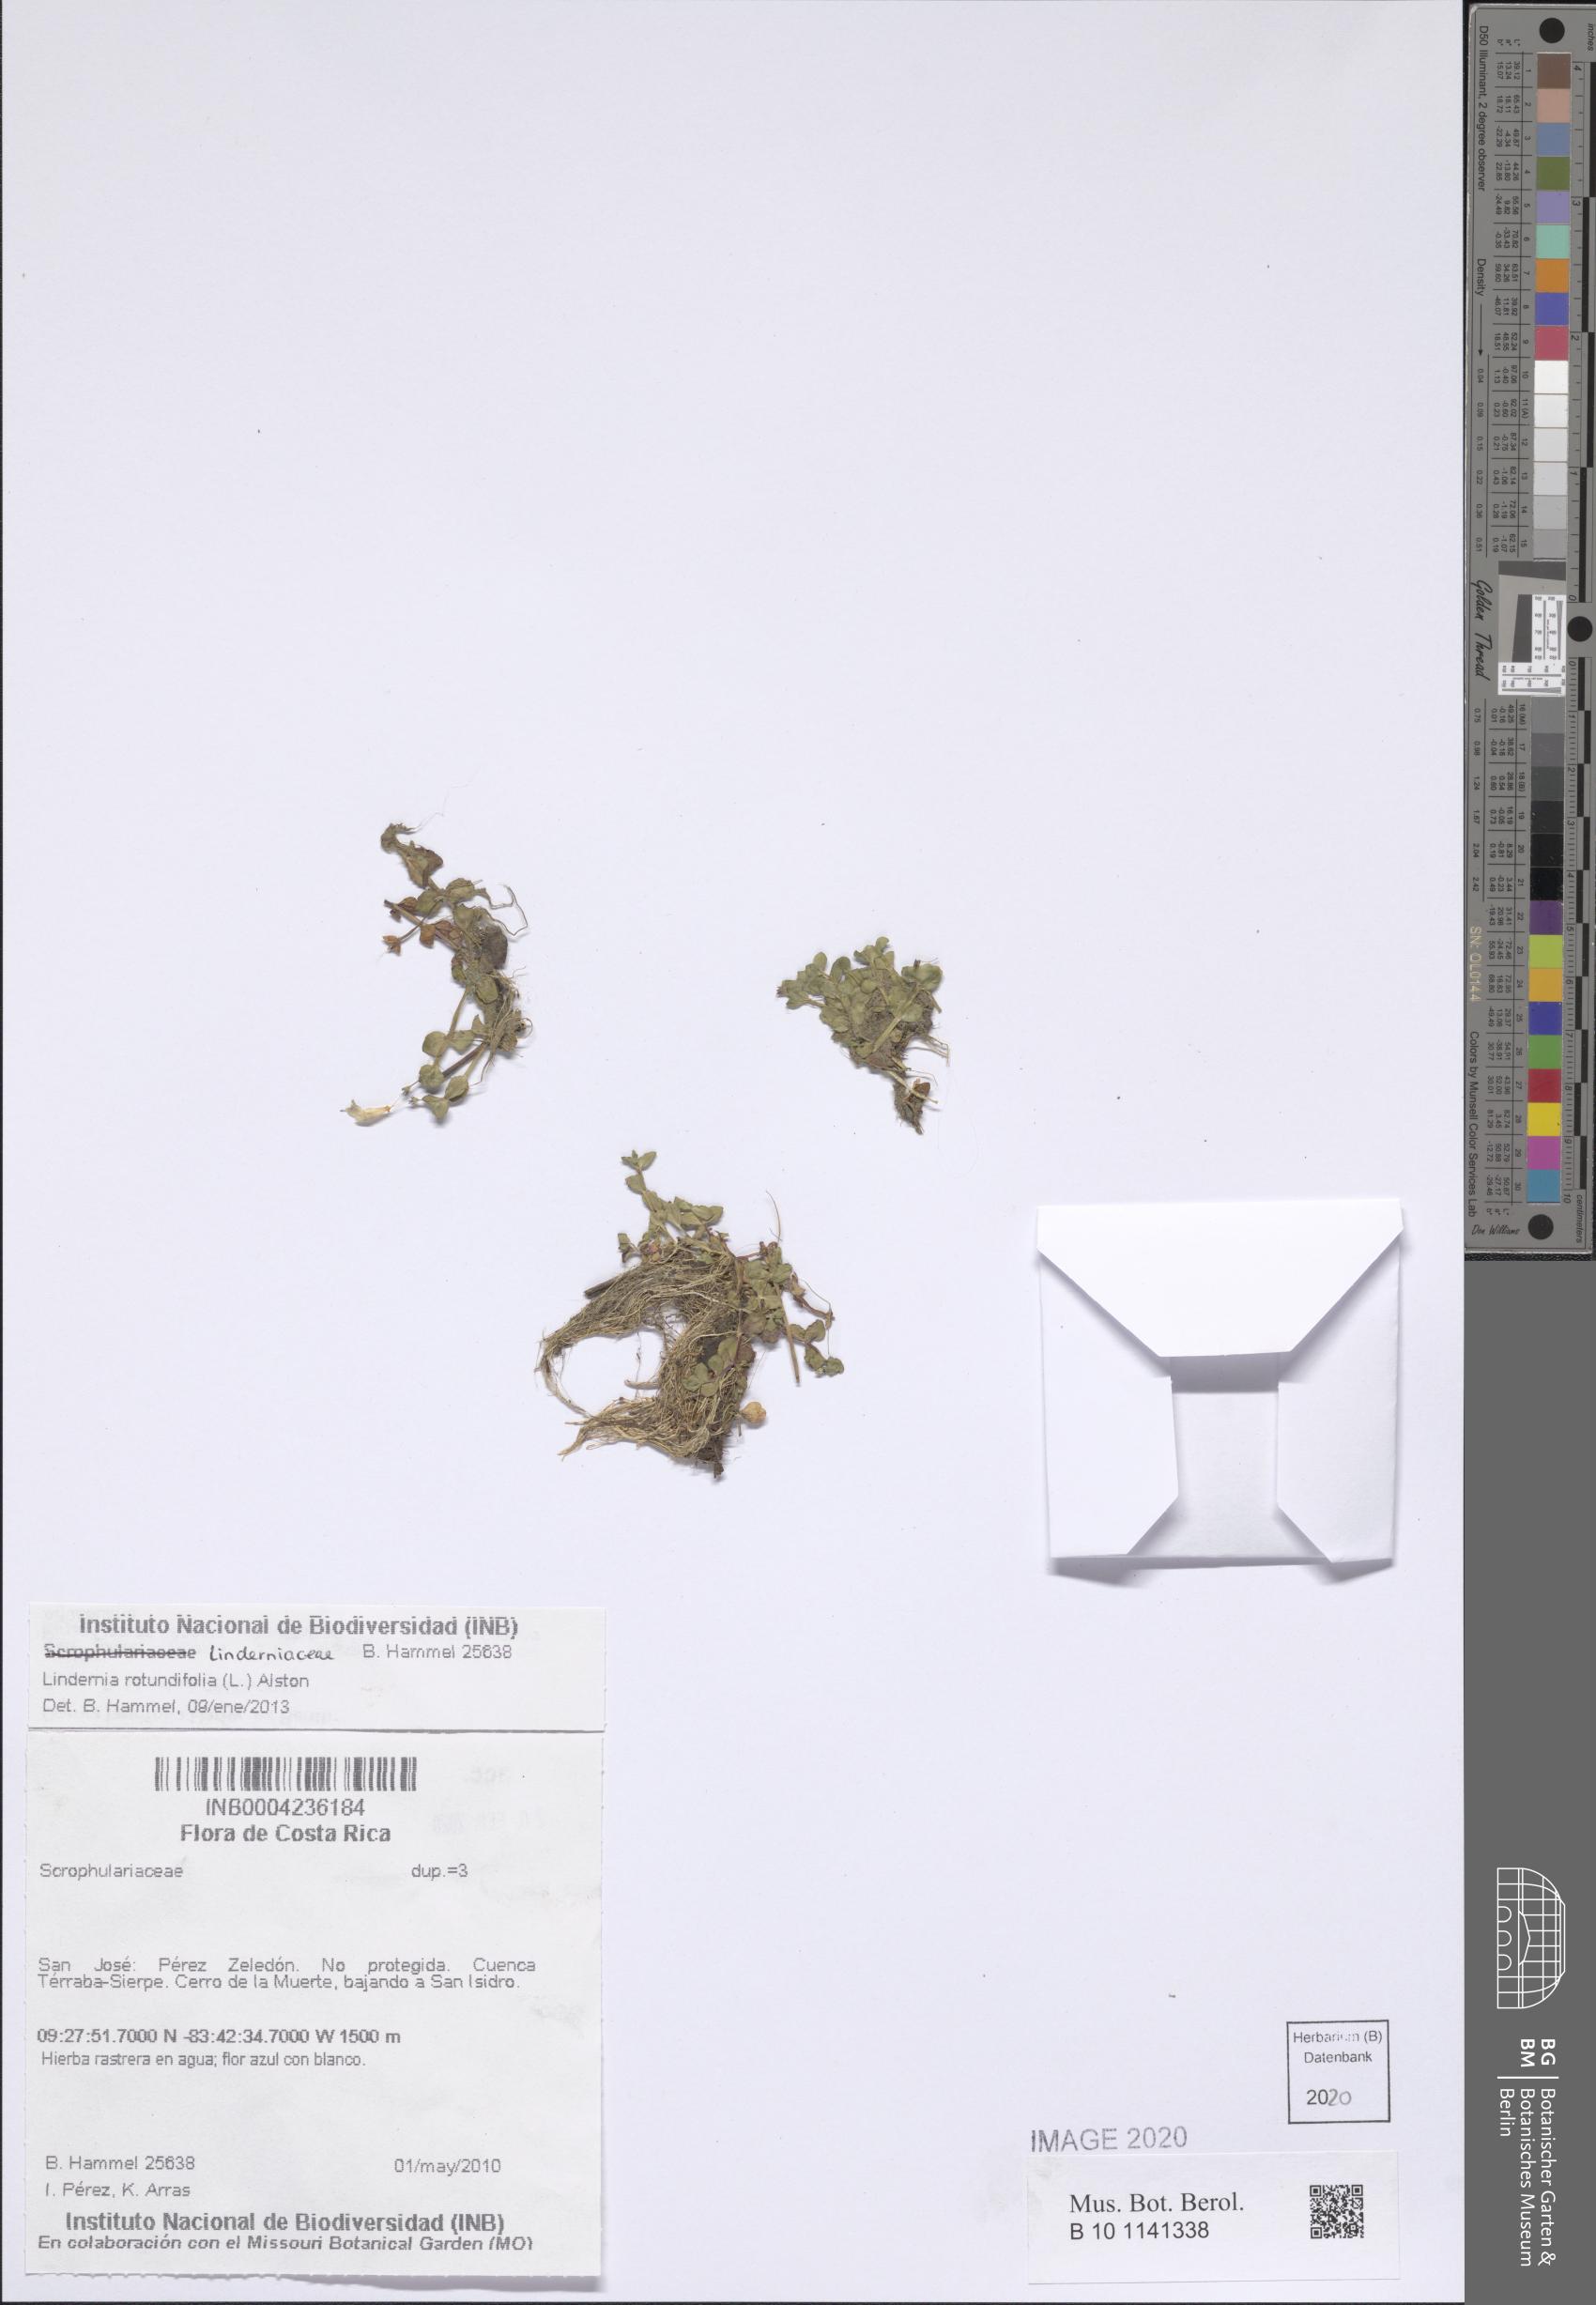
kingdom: Plantae
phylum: Tracheophyta
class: Magnoliopsida
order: Lamiales
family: Linderniaceae
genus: Lindernia
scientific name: Lindernia rotundifolia
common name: Baby’s tears
